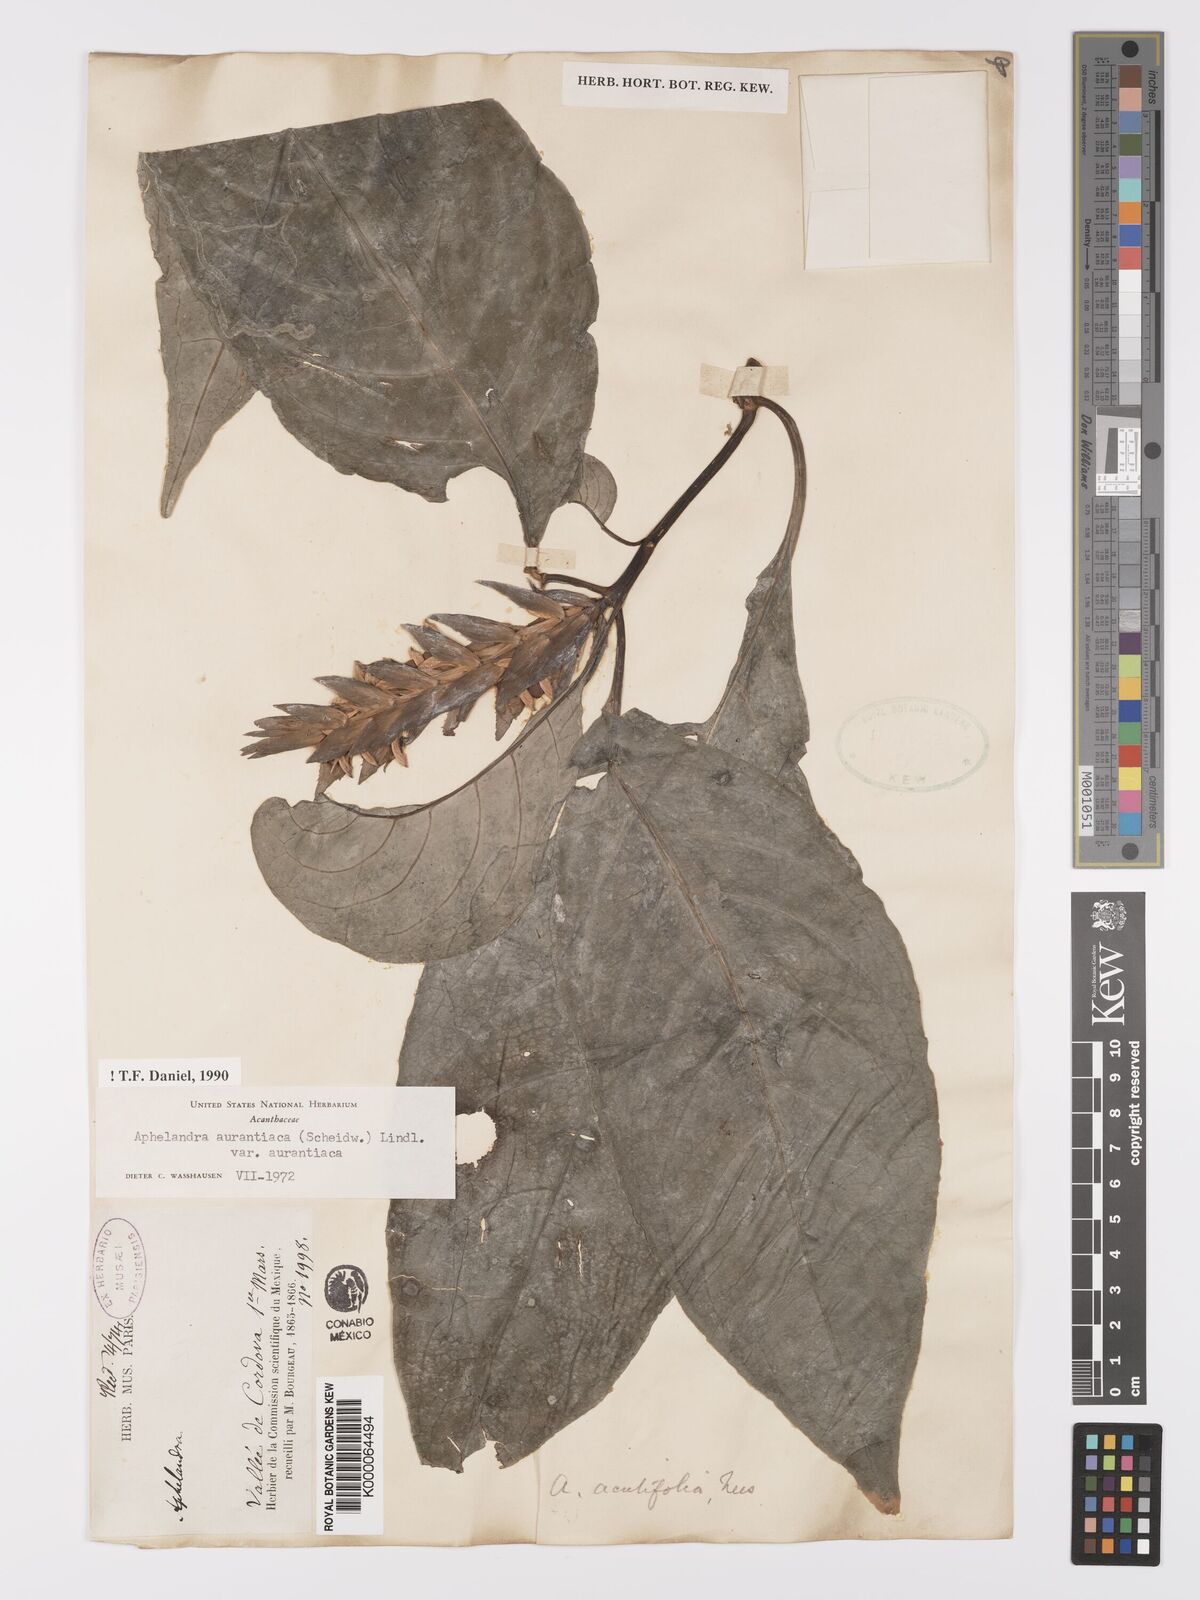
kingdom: Plantae
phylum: Tracheophyta
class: Magnoliopsida
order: Lamiales
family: Acanthaceae
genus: Aphelandra
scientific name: Aphelandra aurantiaca
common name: Fiery spike
